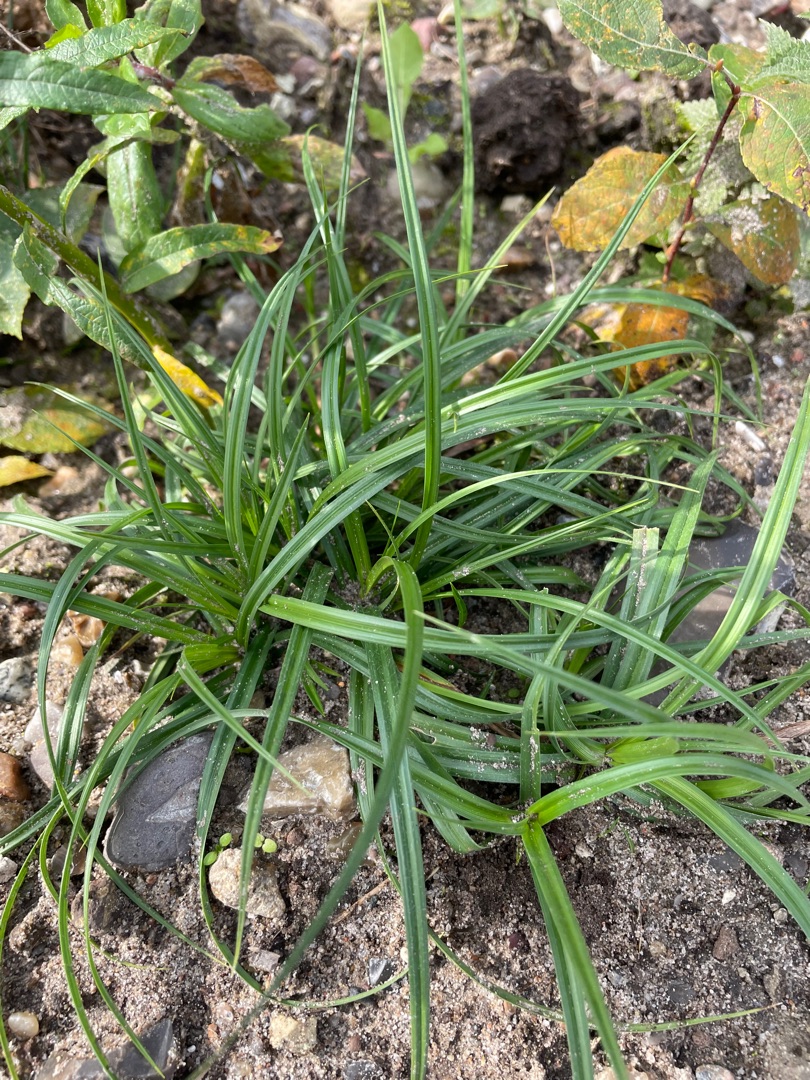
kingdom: Plantae
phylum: Tracheophyta
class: Liliopsida
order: Poales
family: Cyperaceae
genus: Carex
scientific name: Carex hirta
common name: Håret star
